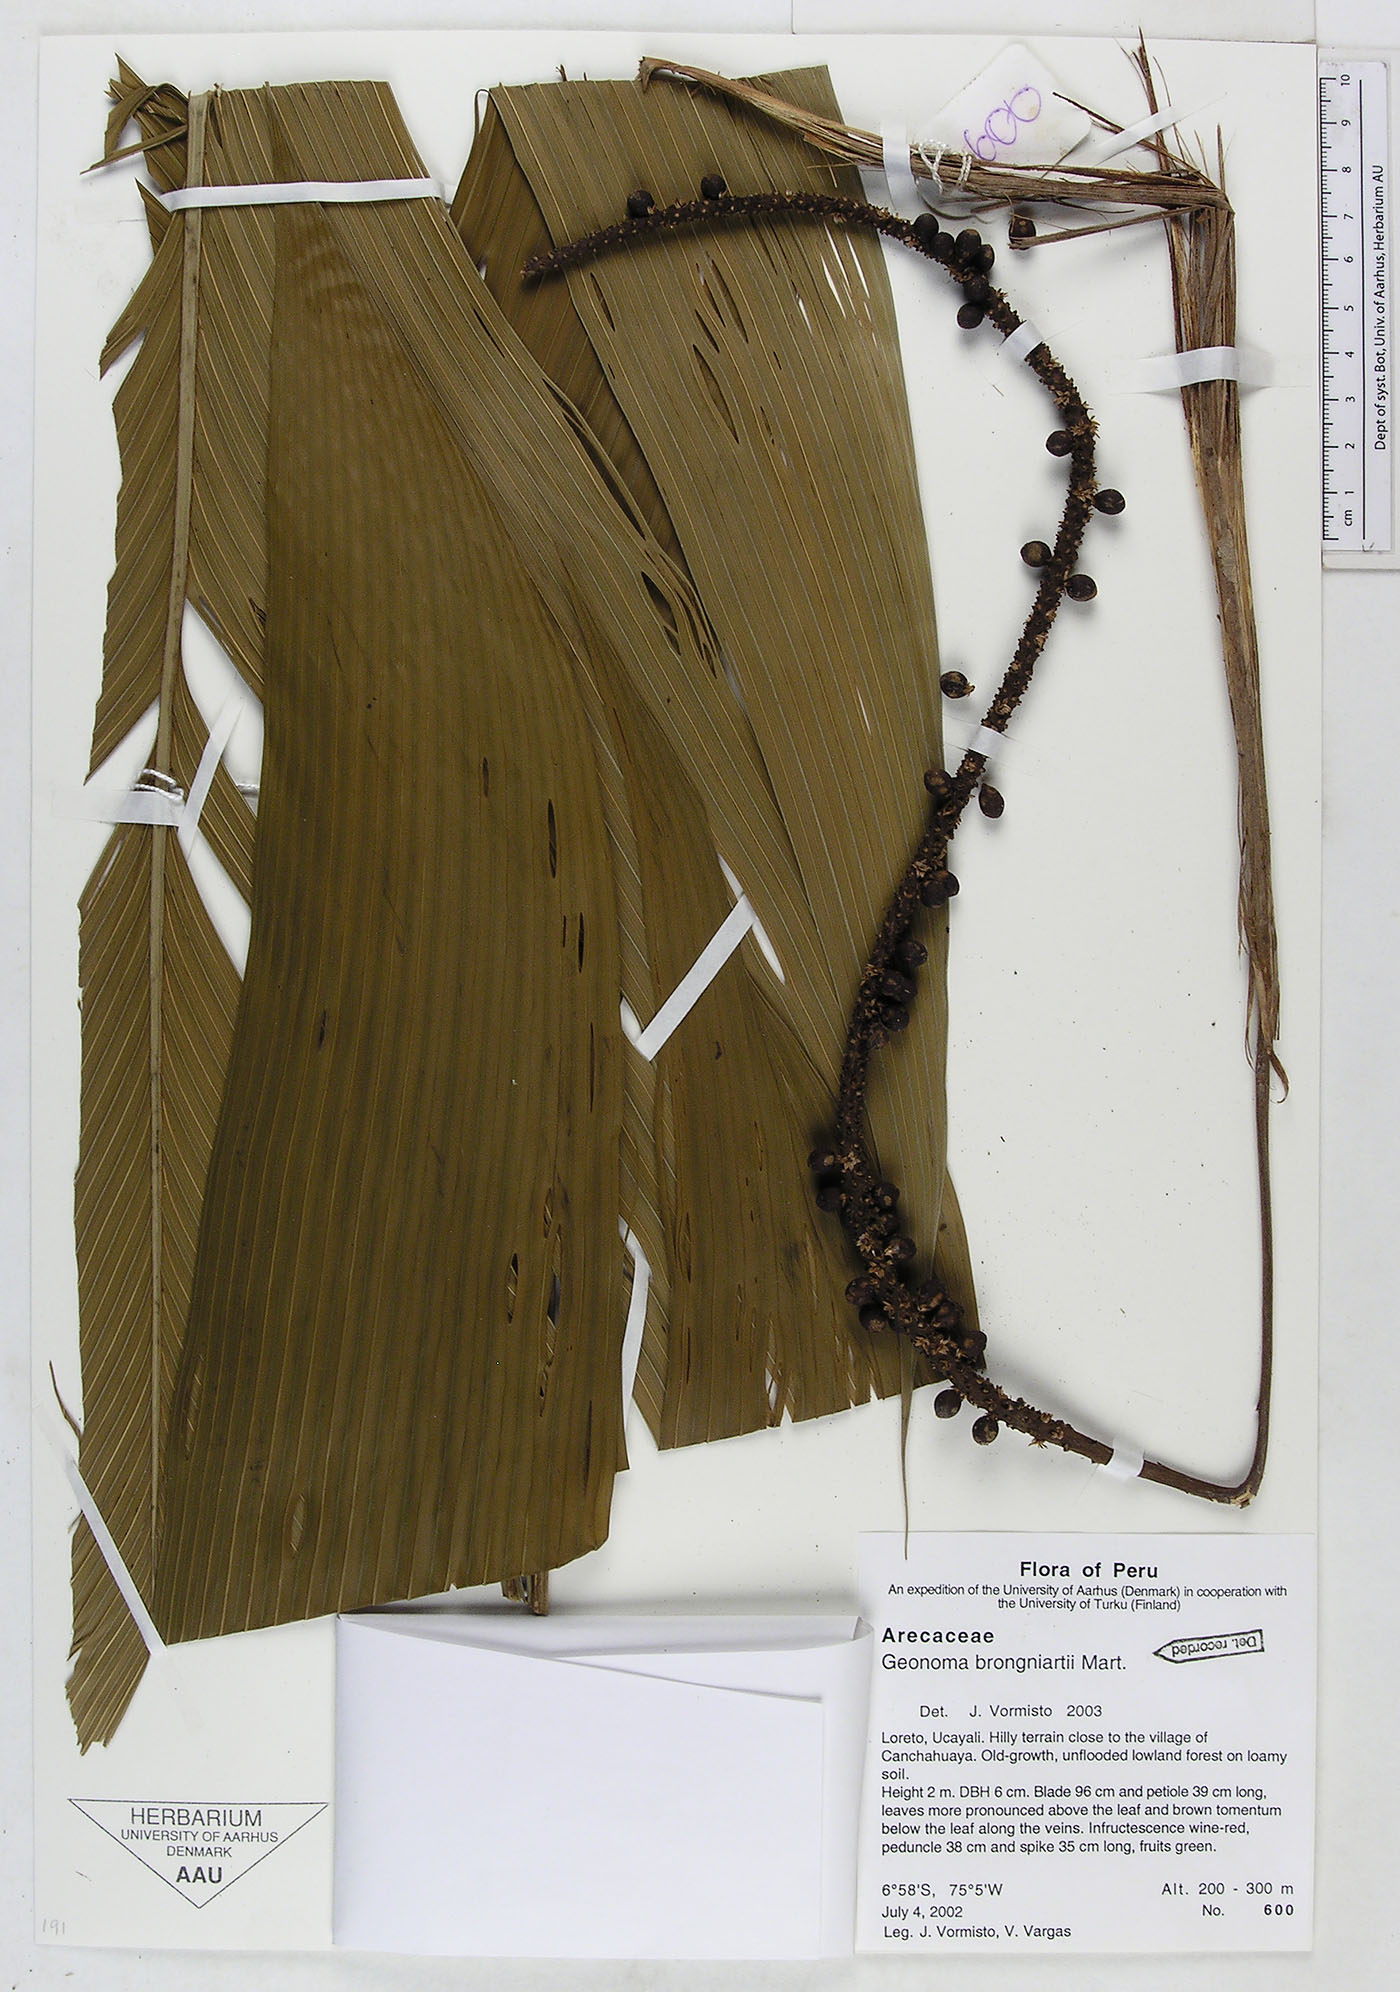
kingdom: Plantae
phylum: Tracheophyta
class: Liliopsida
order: Arecales
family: Arecaceae
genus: Geonoma
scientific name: Geonoma brongniartii
